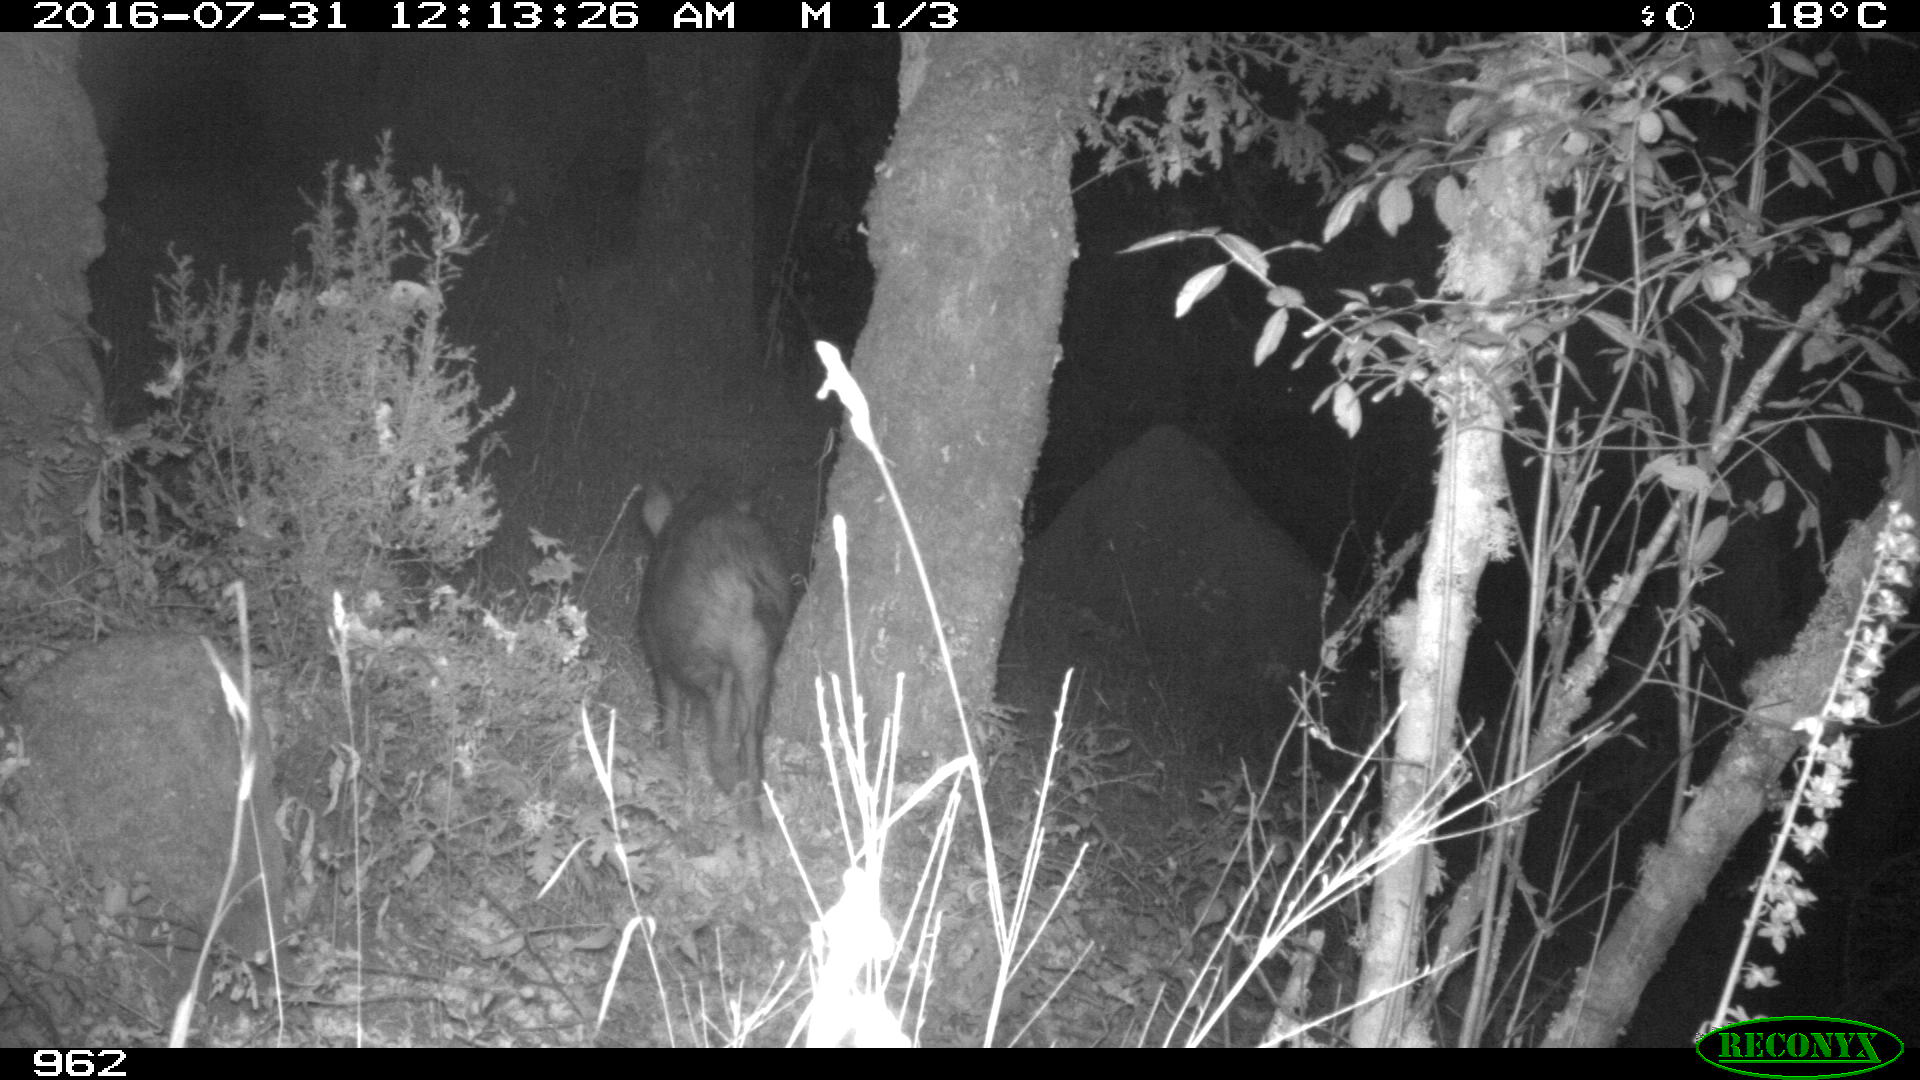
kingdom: Animalia
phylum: Chordata
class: Mammalia
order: Artiodactyla
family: Suidae
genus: Sus
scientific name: Sus scrofa
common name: Wild boar
